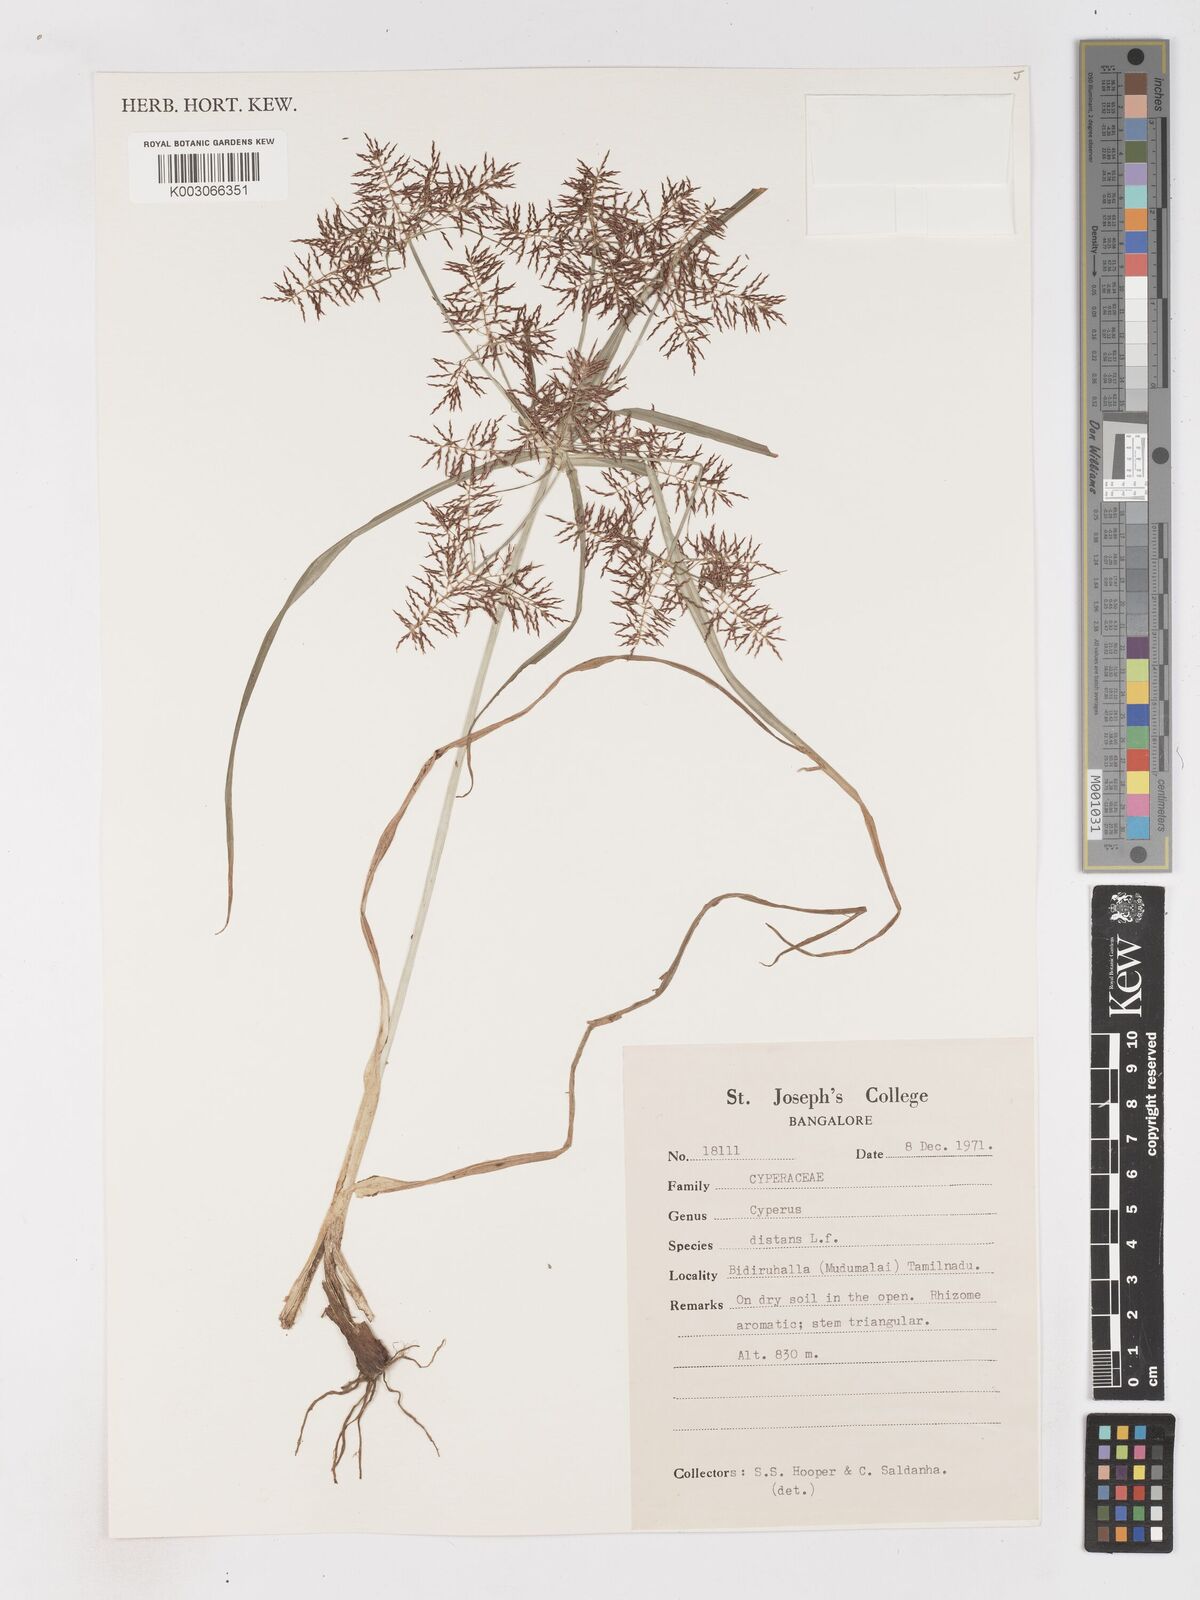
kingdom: Plantae
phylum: Tracheophyta
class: Liliopsida
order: Poales
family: Cyperaceae
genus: Cyperus
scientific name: Cyperus distans
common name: Slender cyperus
